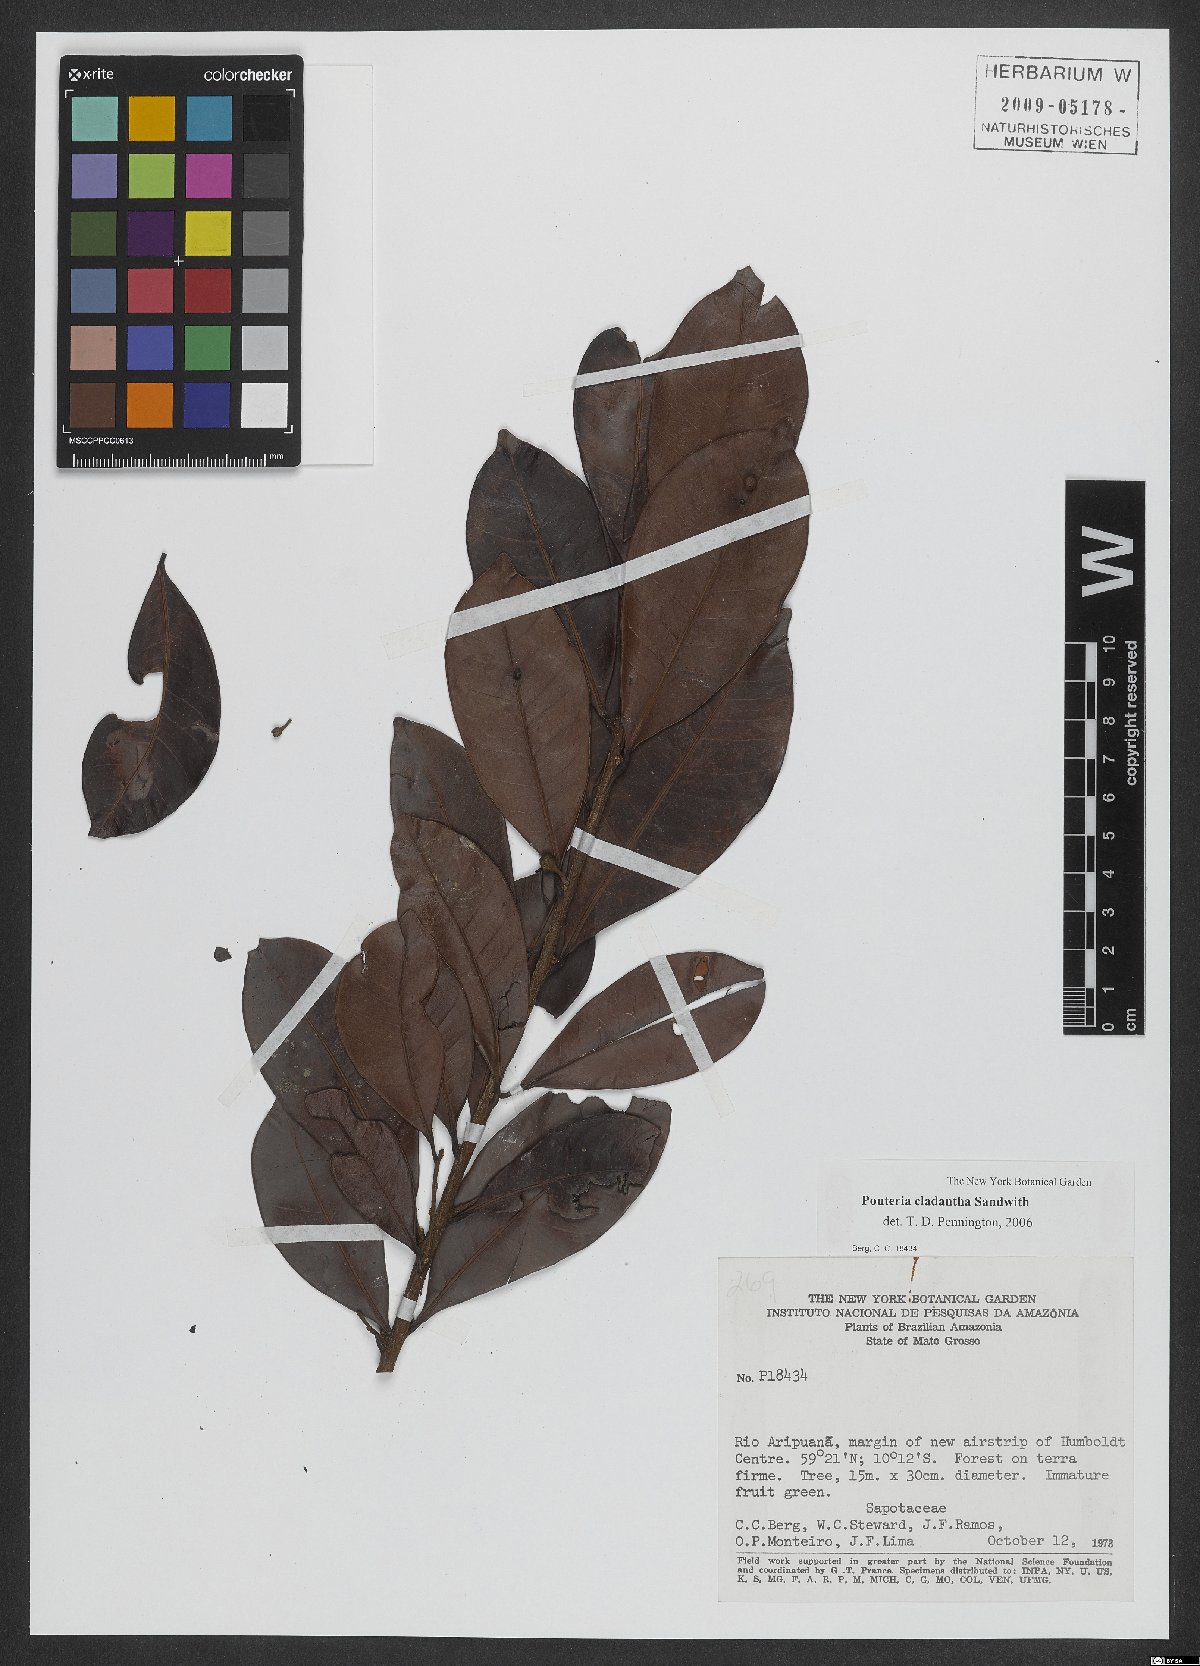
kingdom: Plantae
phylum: Tracheophyta
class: Magnoliopsida
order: Ericales
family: Sapotaceae
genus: Pouteria
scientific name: Pouteria cladantha
